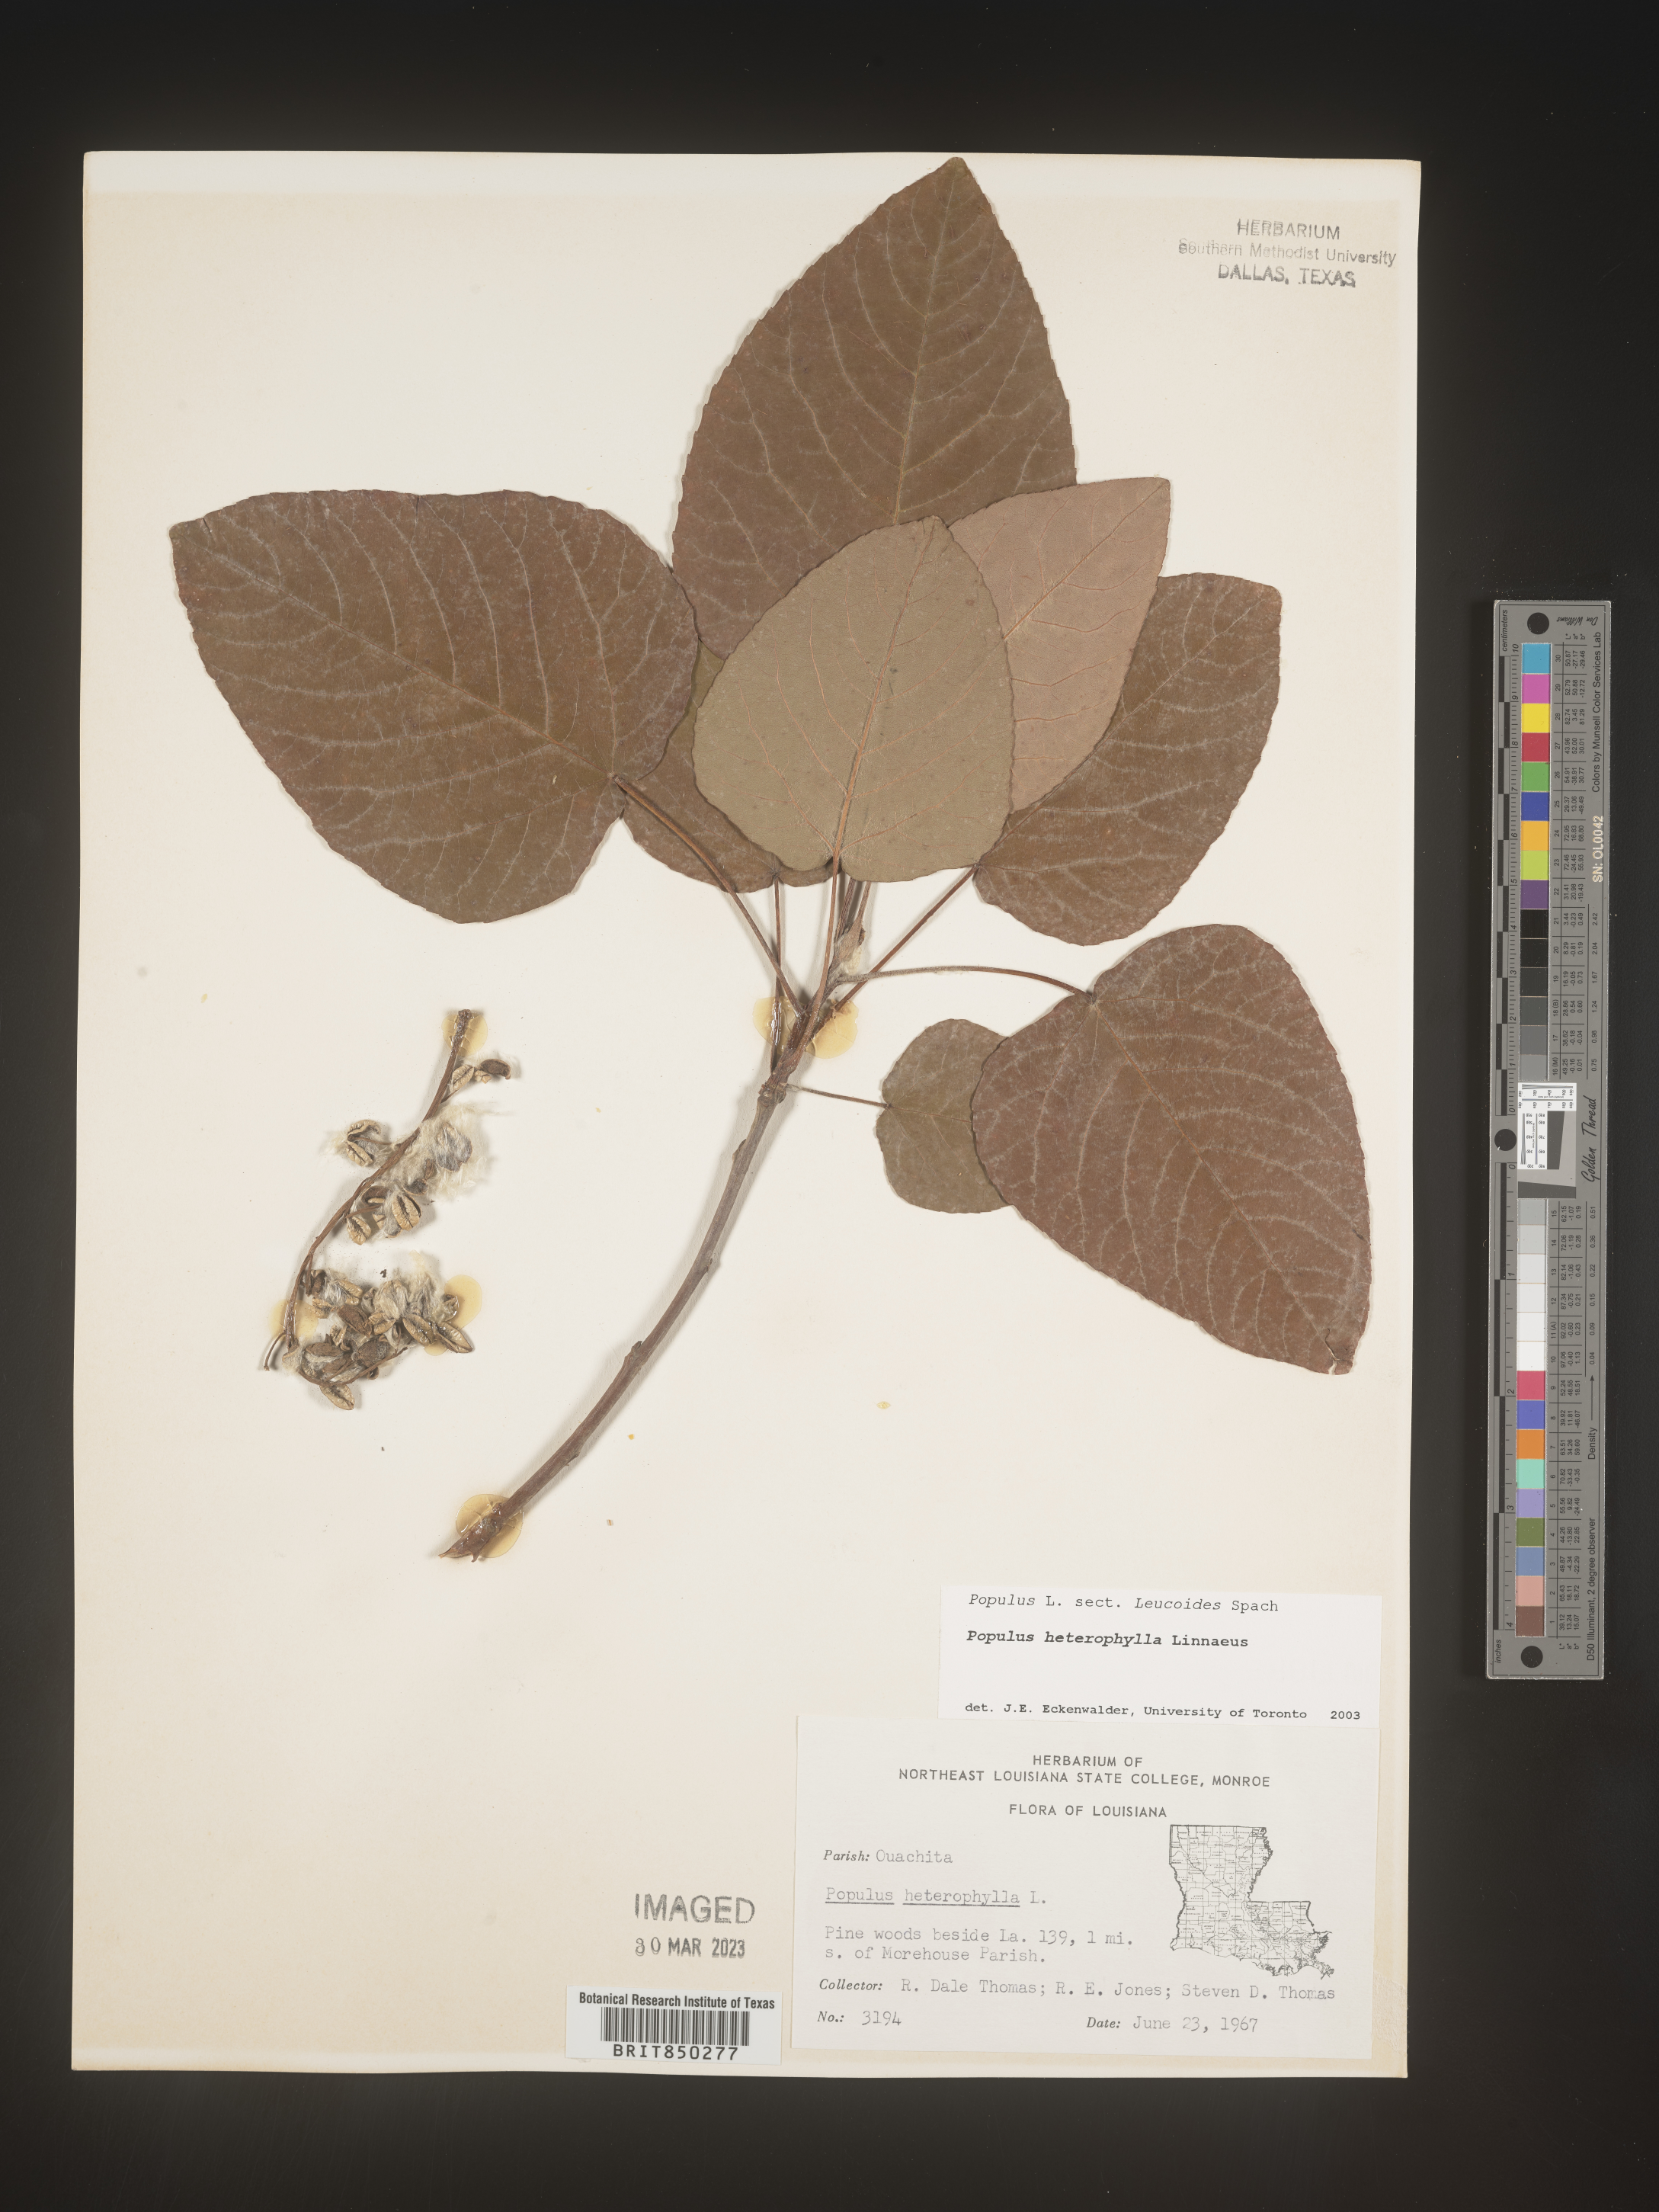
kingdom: Plantae
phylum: Tracheophyta
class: Magnoliopsida
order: Malpighiales
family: Salicaceae
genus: Populus
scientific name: Populus heterophylla
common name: Downy poplar
